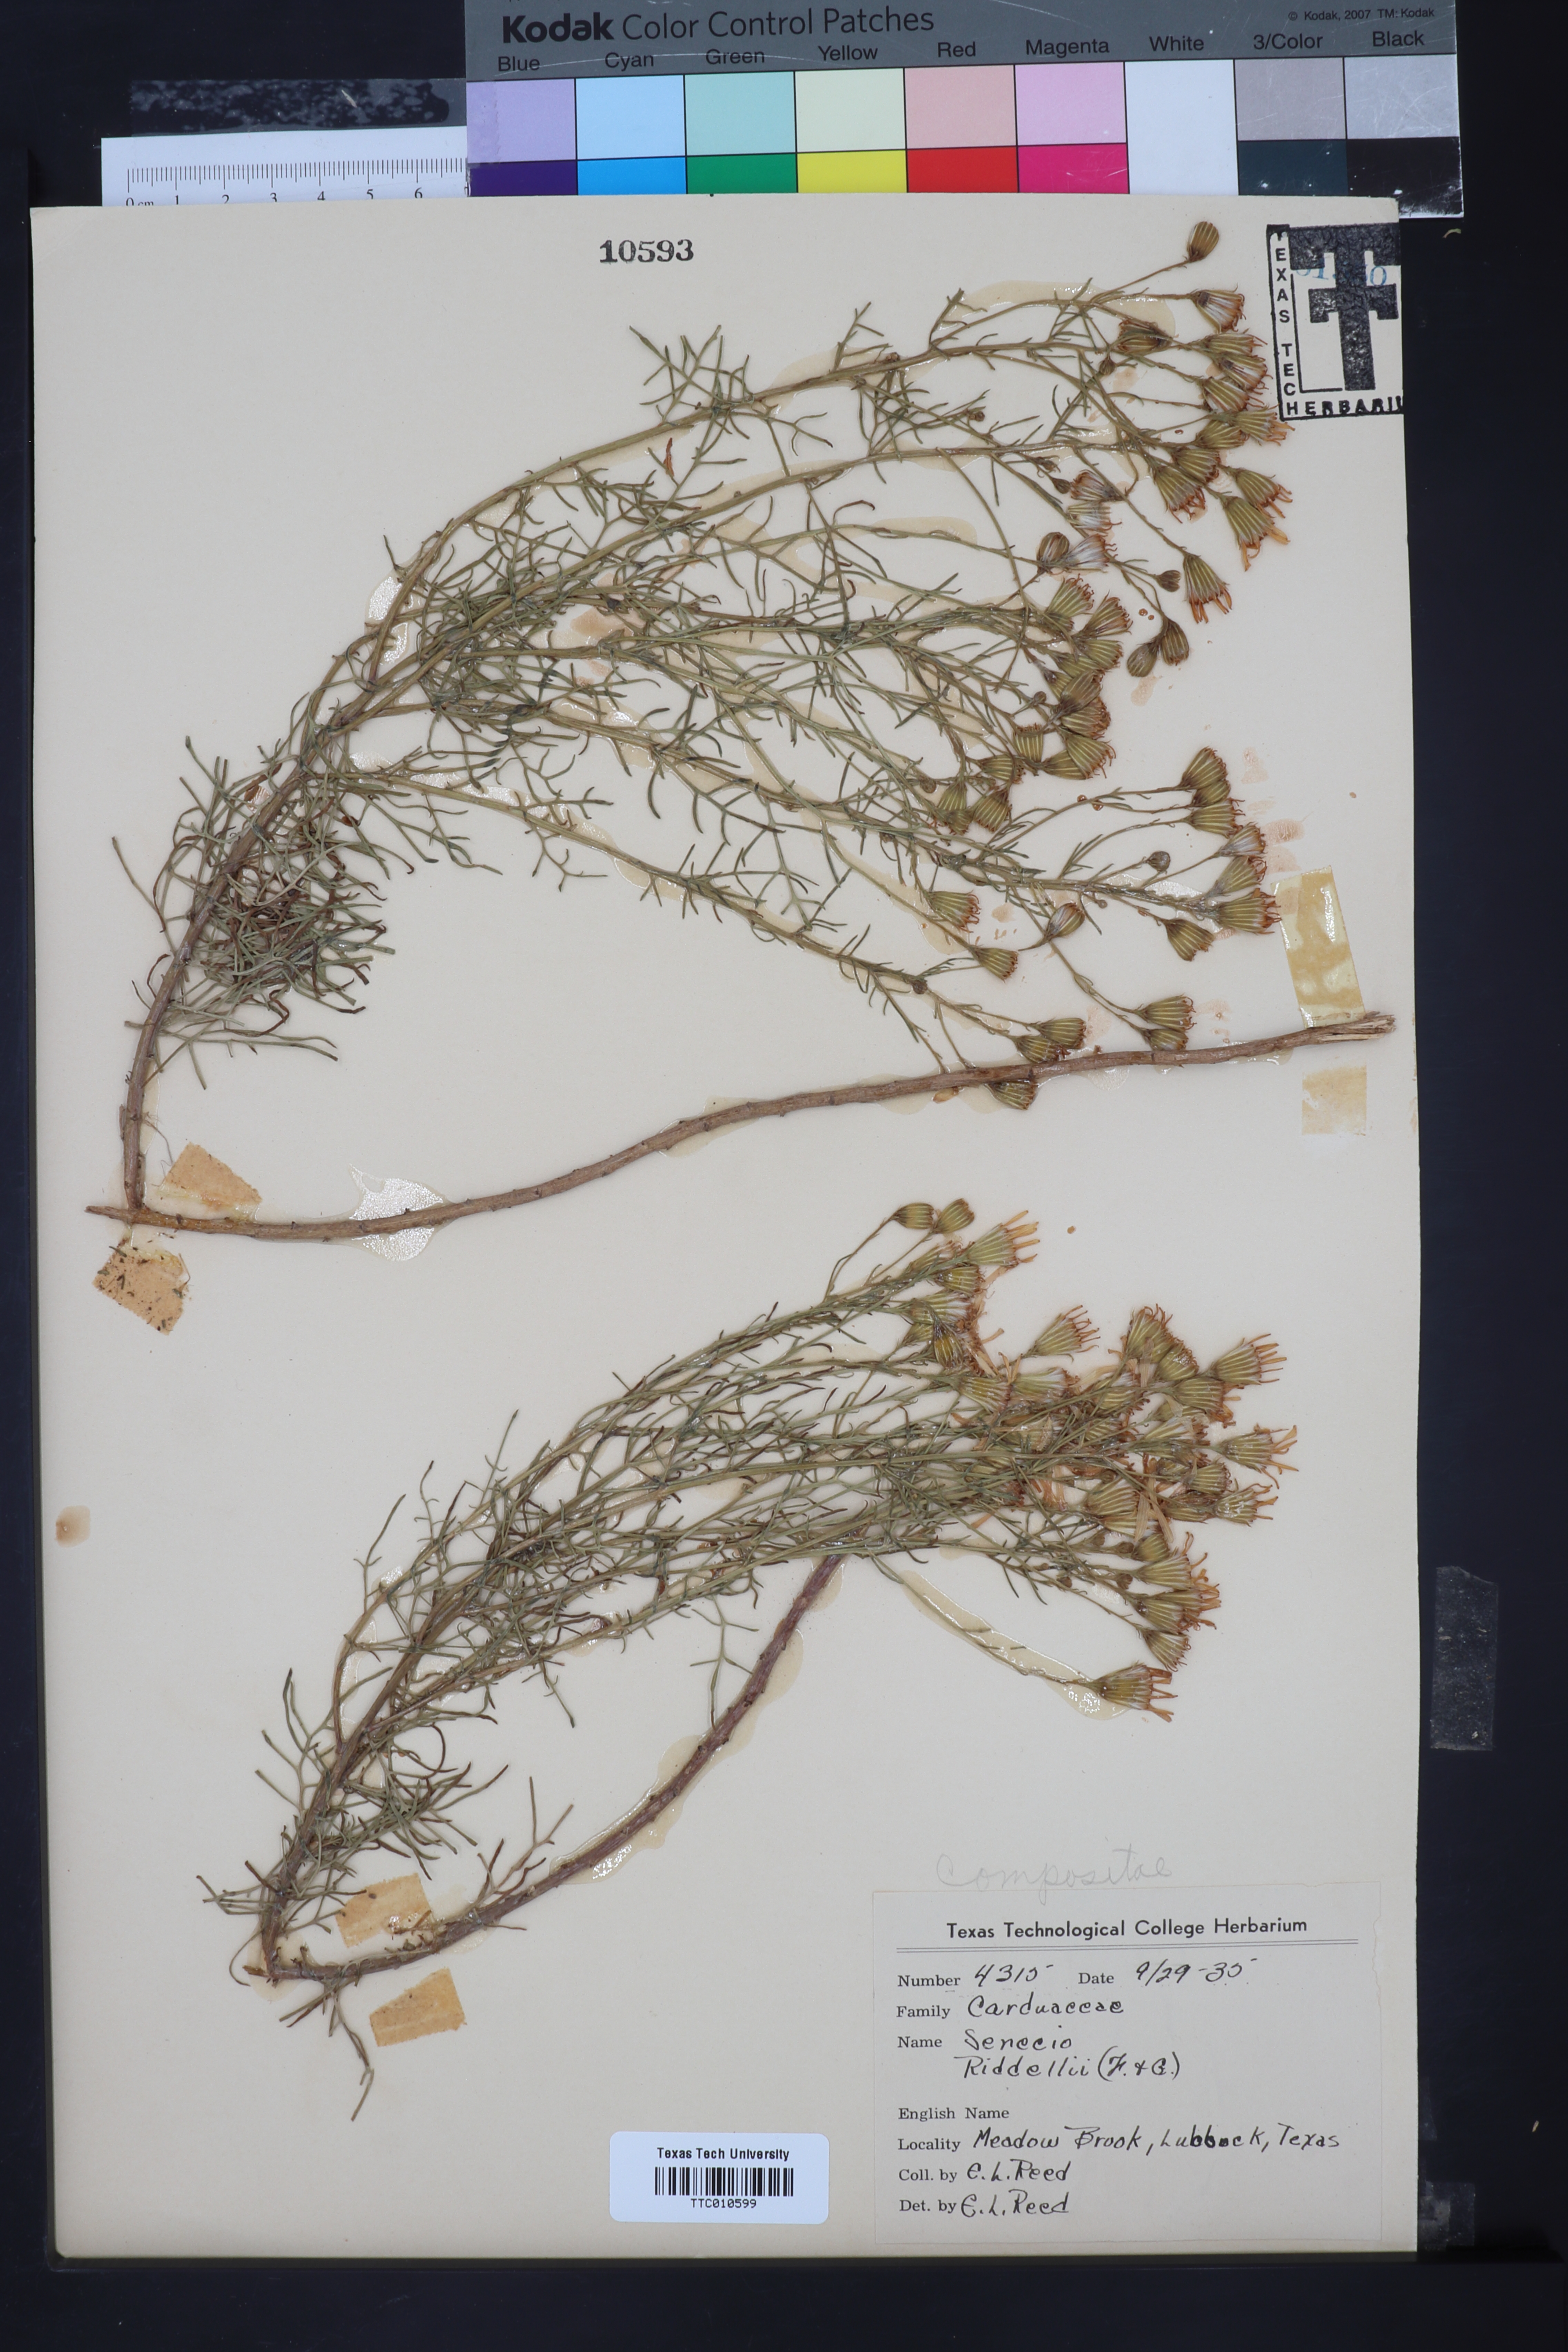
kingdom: Plantae
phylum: Tracheophyta
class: Magnoliopsida
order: Asterales
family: Asteraceae
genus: Senecio
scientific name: Senecio riddellii
